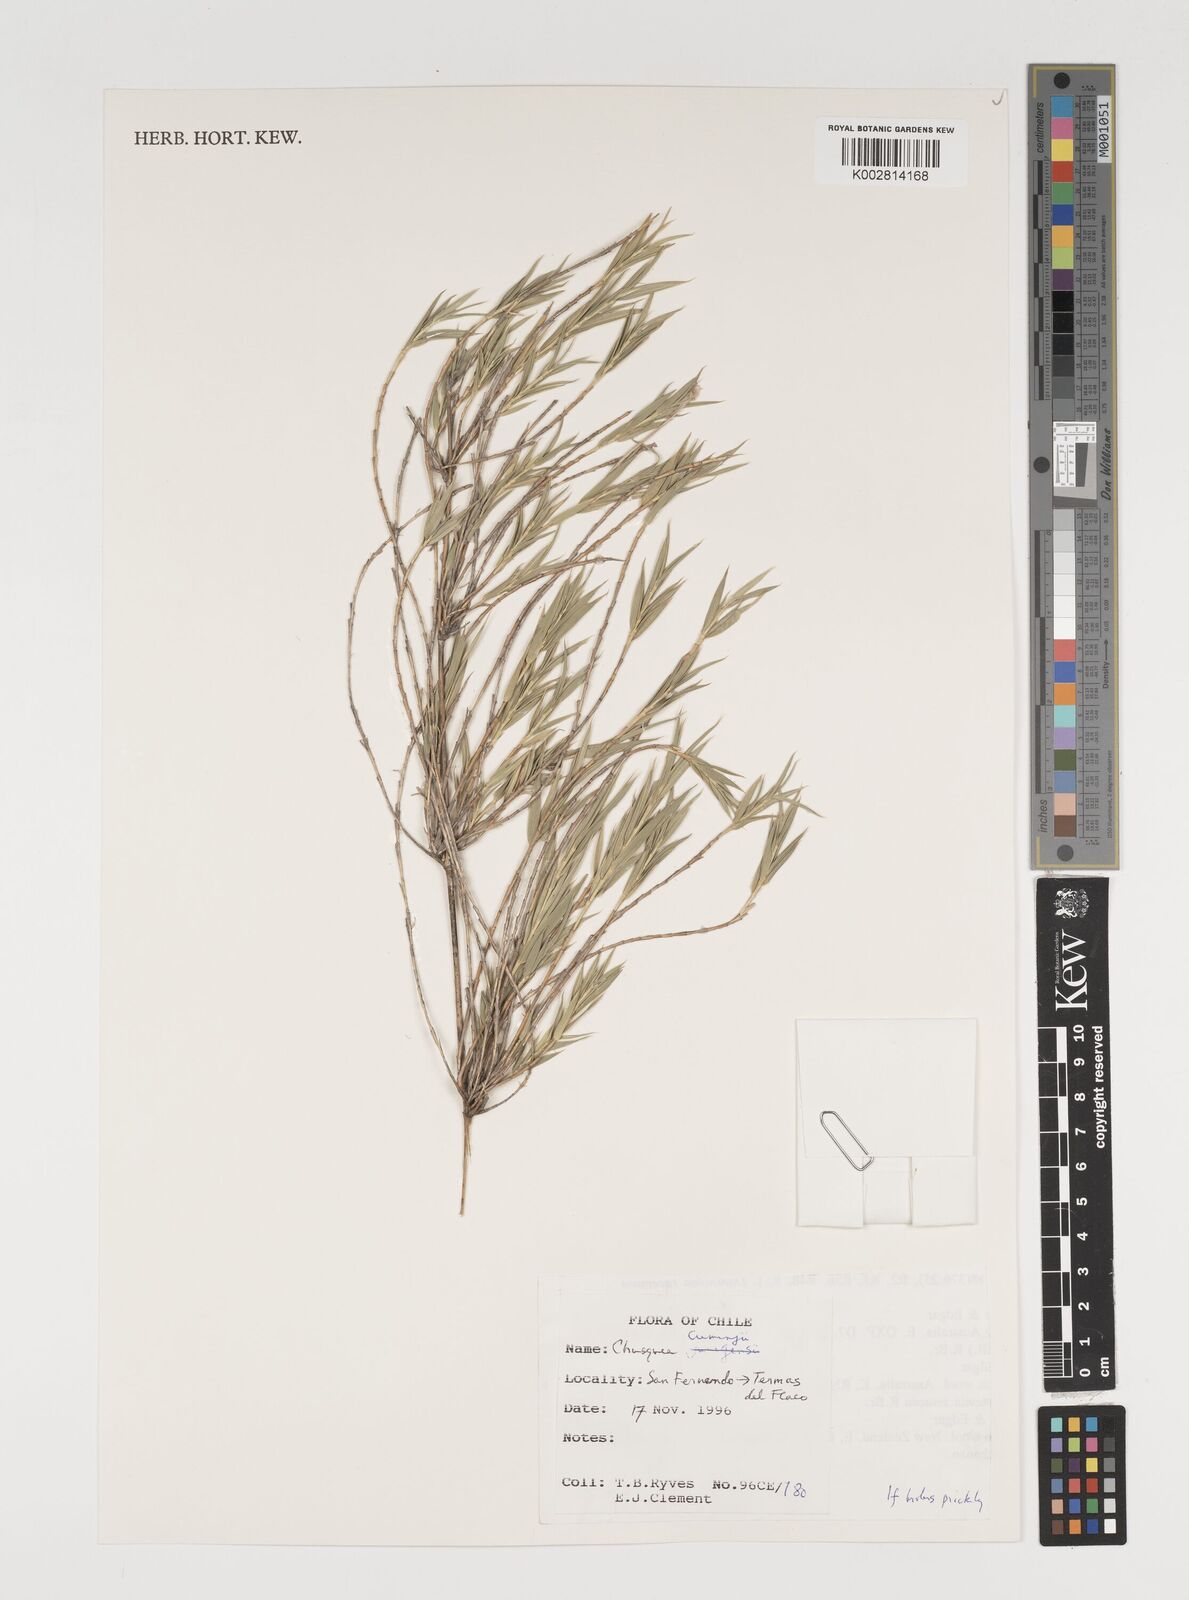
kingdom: Plantae
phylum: Tracheophyta
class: Liliopsida
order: Poales
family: Poaceae
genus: Chusquea
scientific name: Chusquea cumingii
